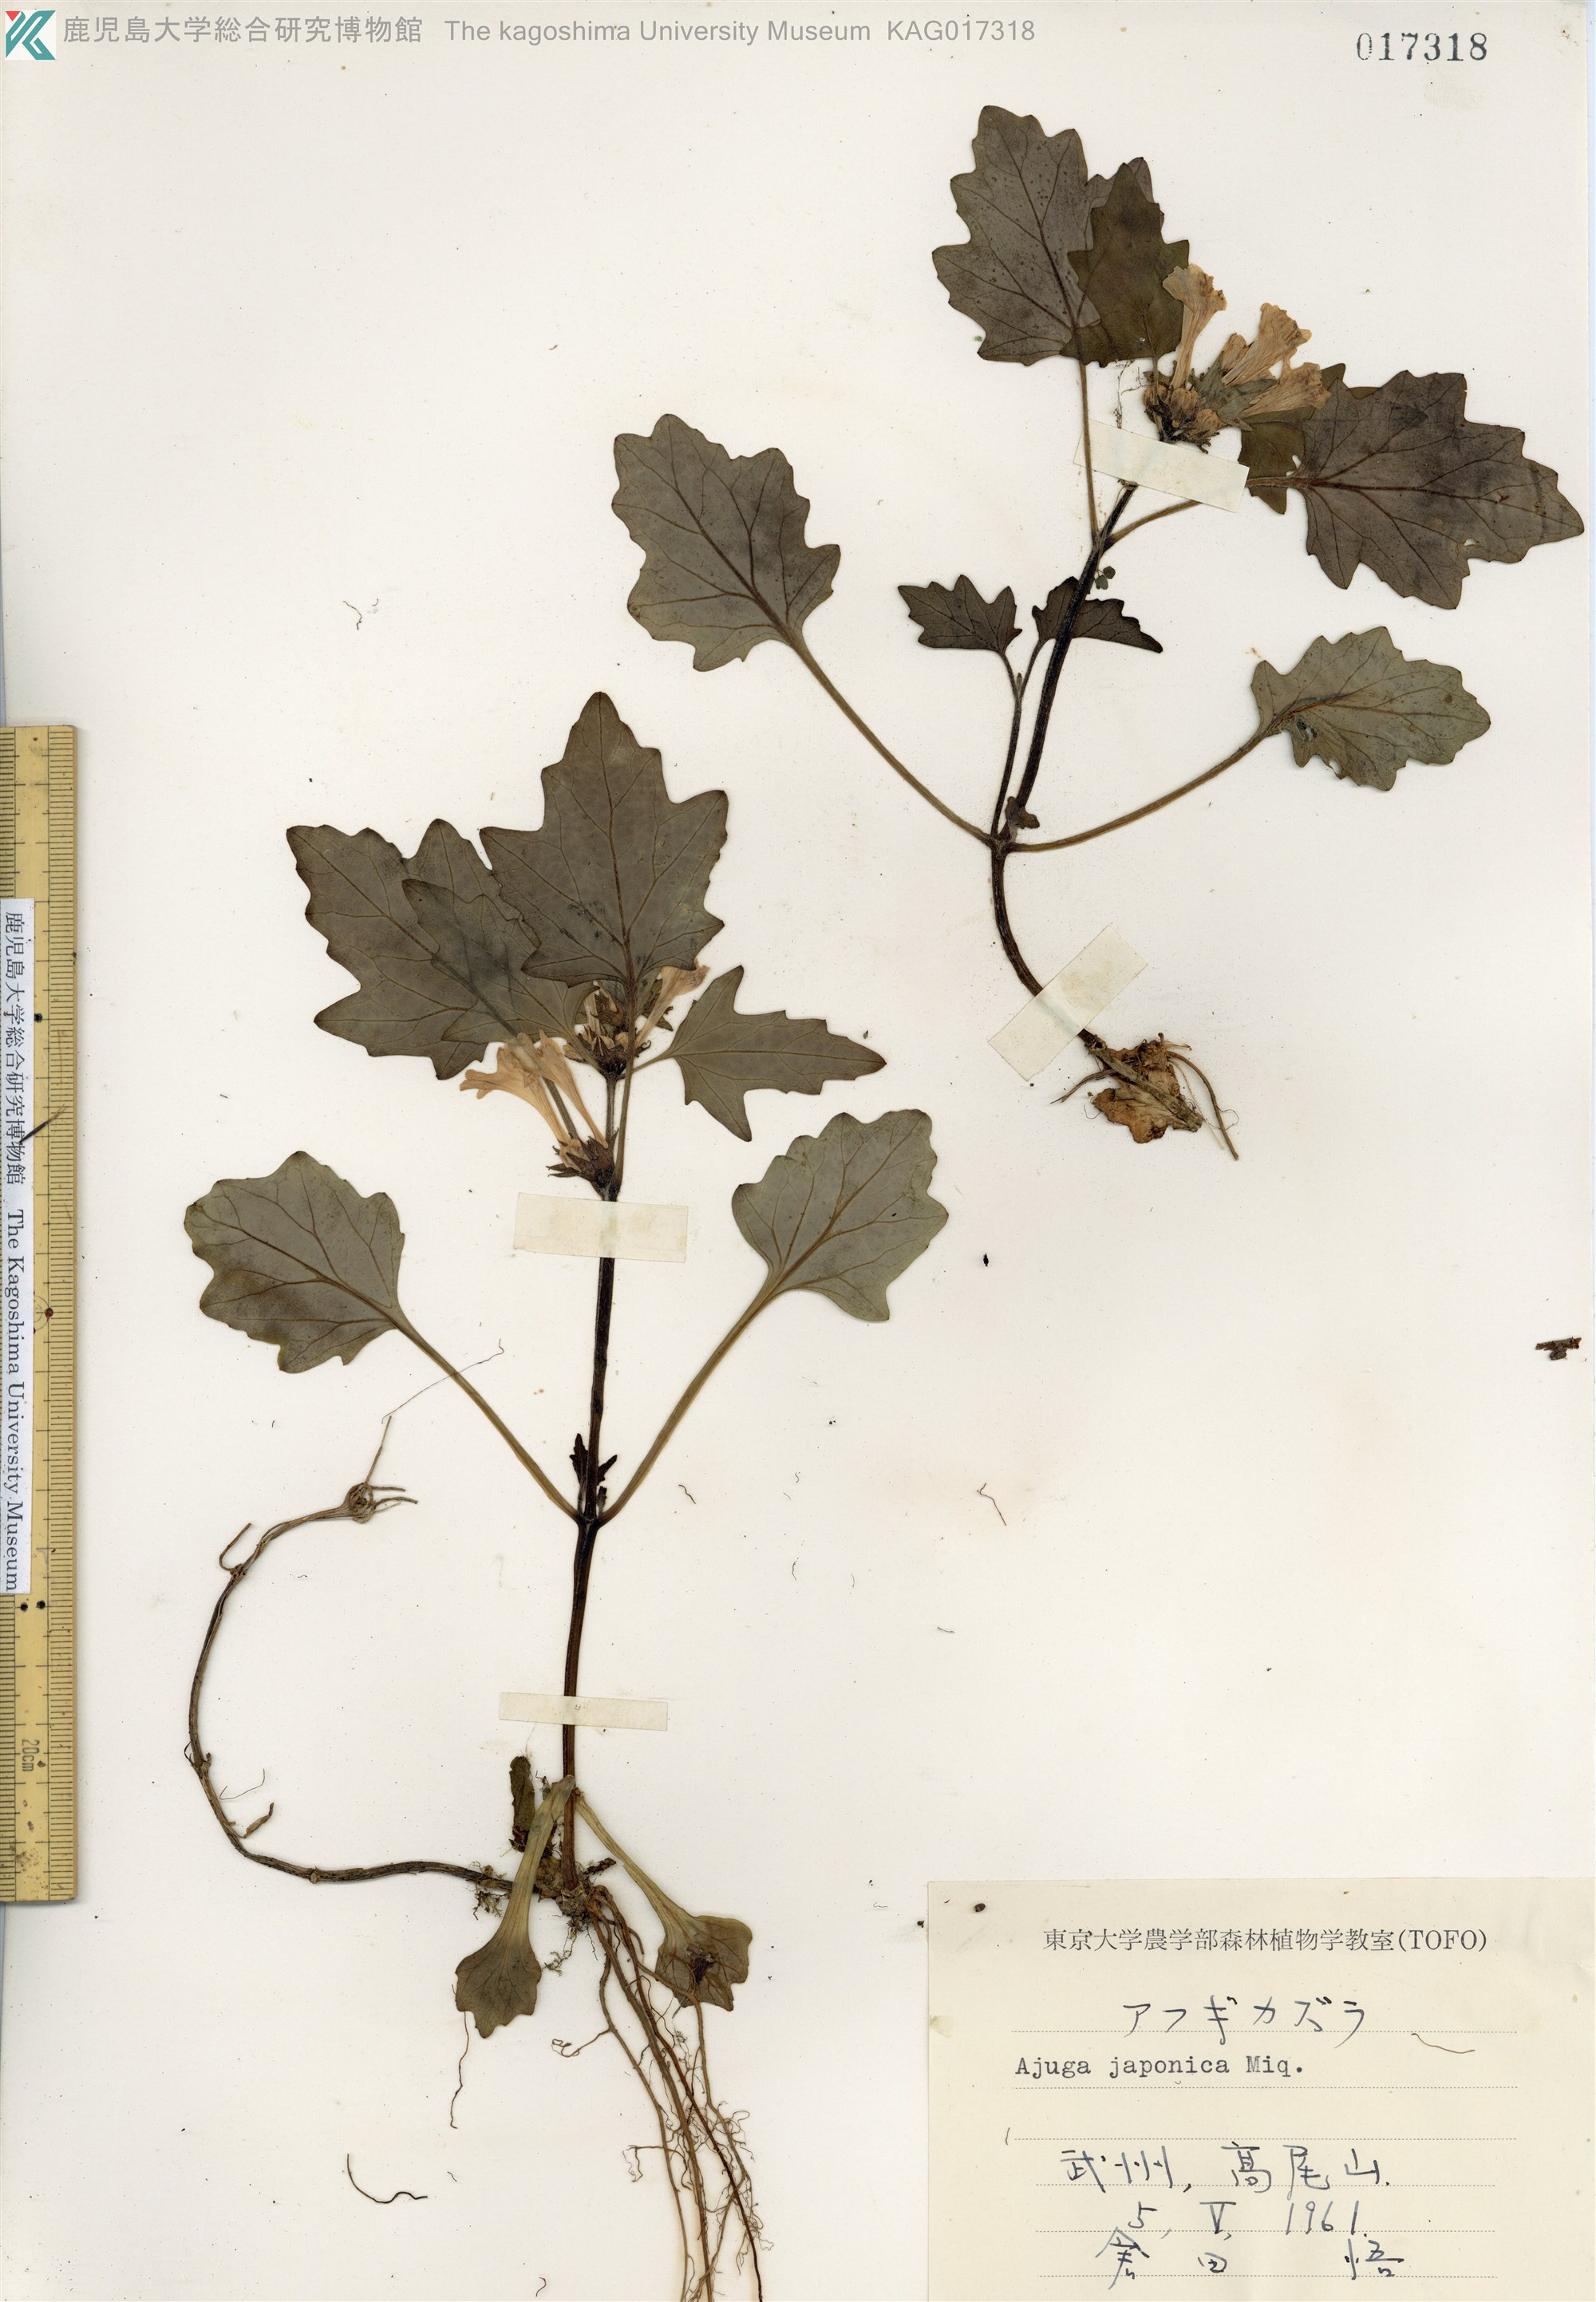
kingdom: Plantae
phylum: Tracheophyta
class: Magnoliopsida
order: Lamiales
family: Lamiaceae
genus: Ajuga
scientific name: Ajuga japonica
